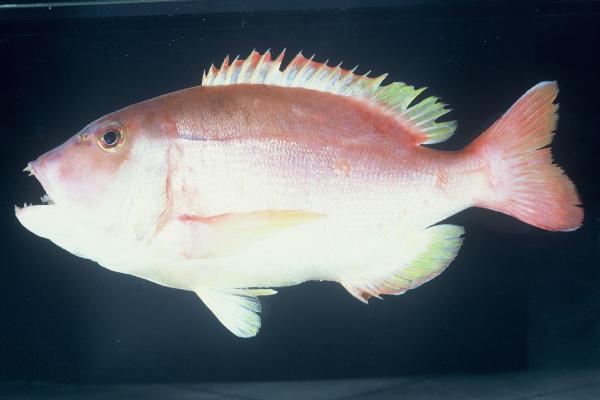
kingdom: Animalia
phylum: Chordata
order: Perciformes
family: Sparidae
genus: Porcostoma
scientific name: Porcostoma dentata
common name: Dane
